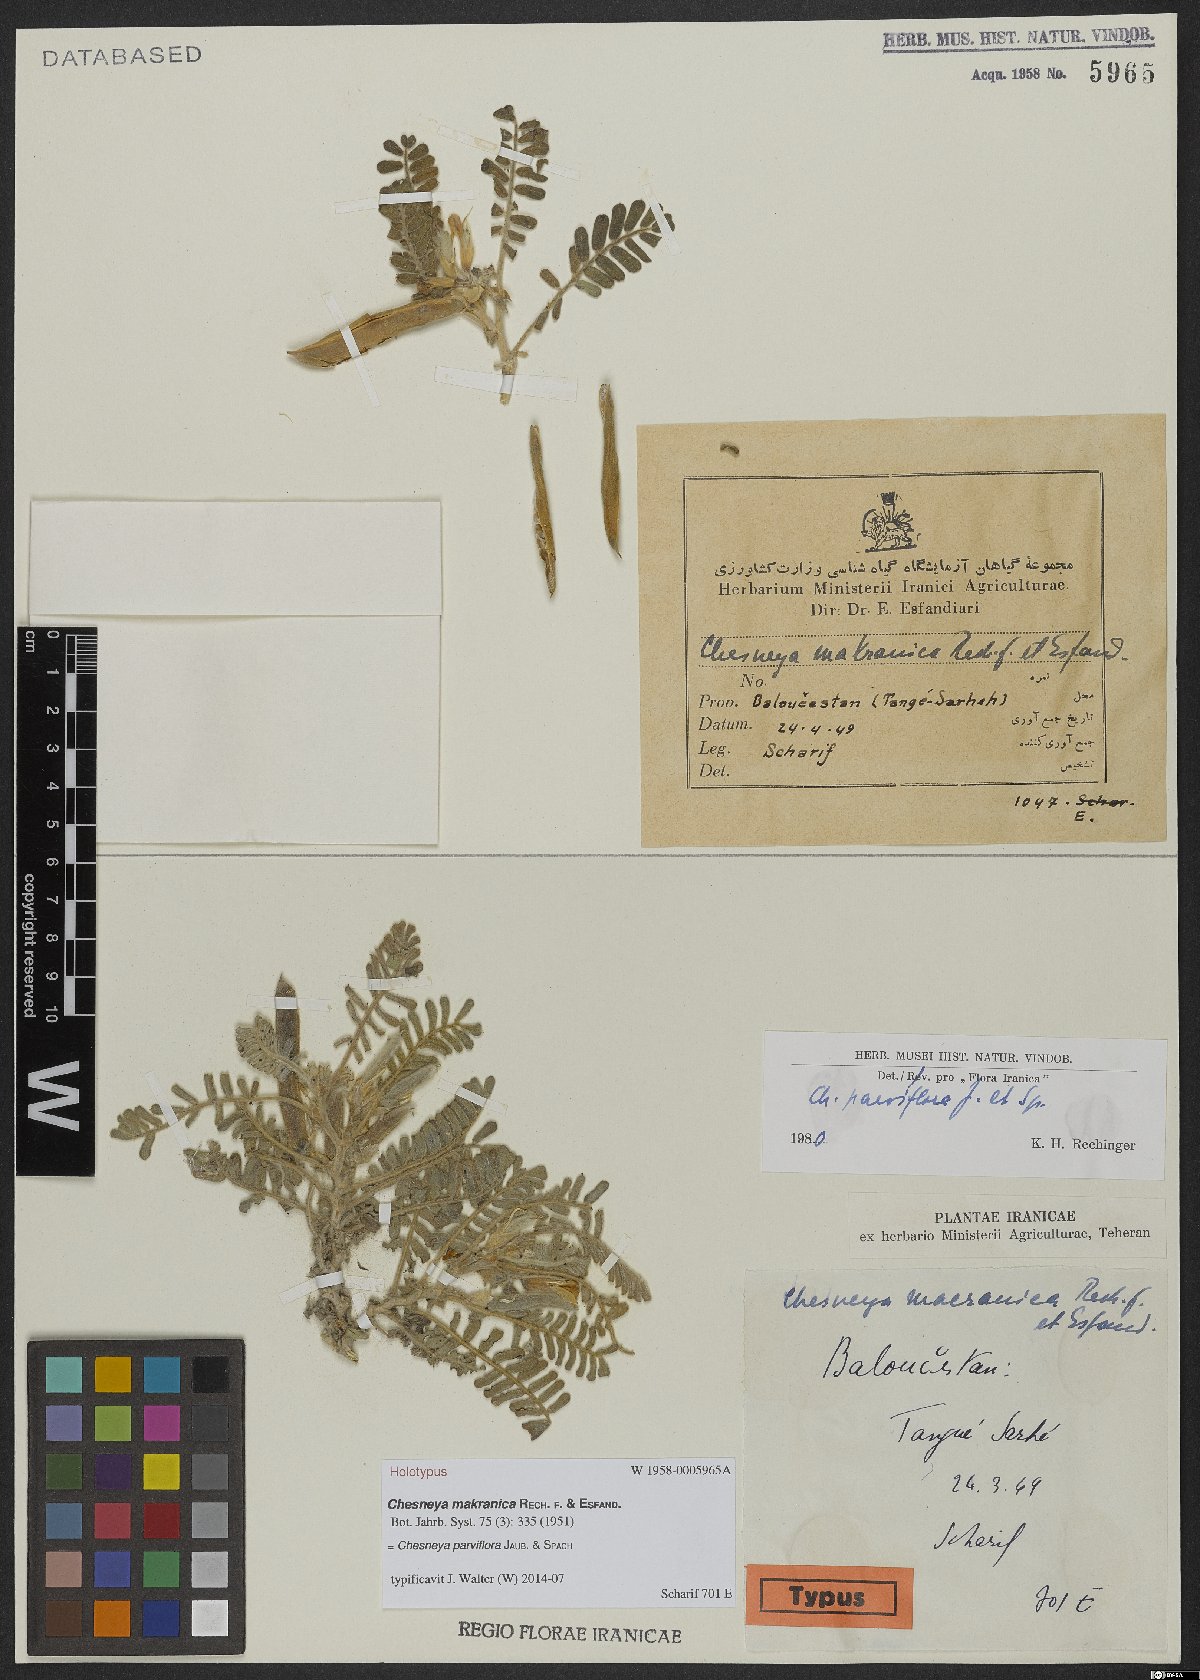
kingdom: Plantae
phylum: Tracheophyta
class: Magnoliopsida
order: Fabales
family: Fabaceae
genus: Chesneya
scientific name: Chesneya parviflora
